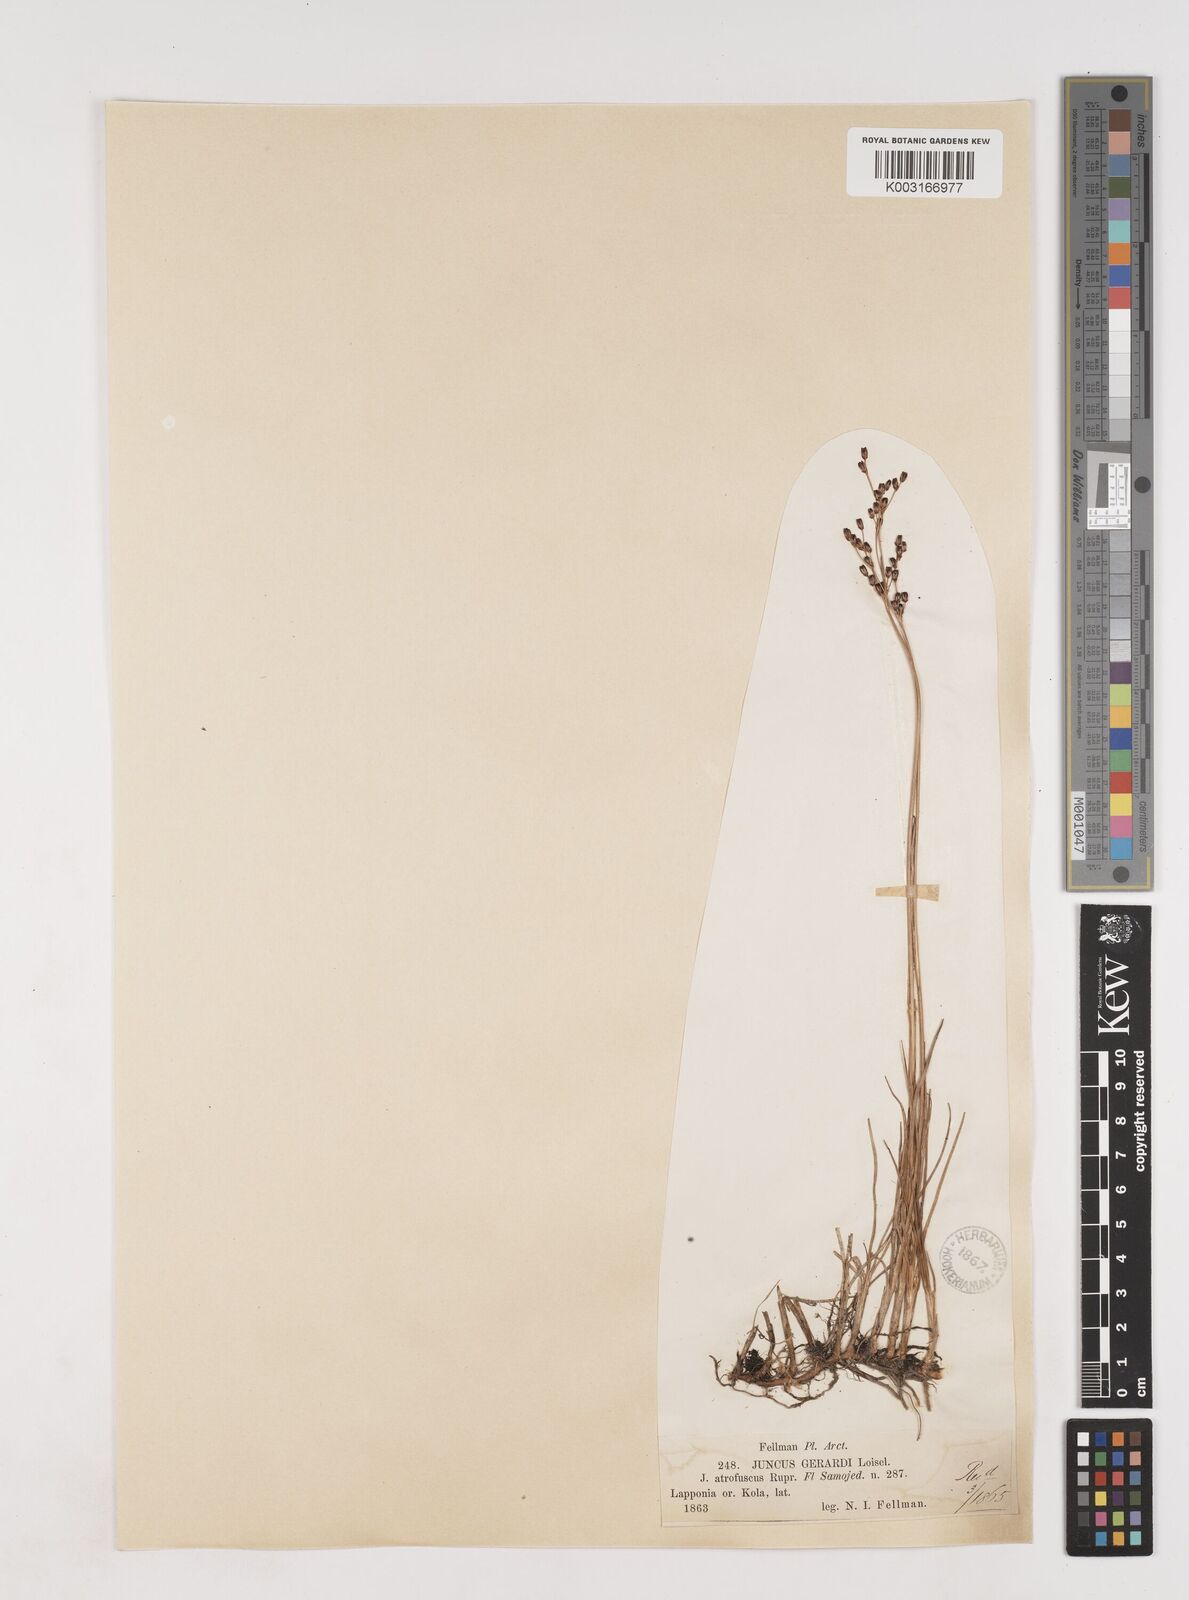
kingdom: Plantae
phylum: Tracheophyta
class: Liliopsida
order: Poales
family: Juncaceae
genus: Juncus
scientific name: Juncus gerardi
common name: Saltmarsh rush
